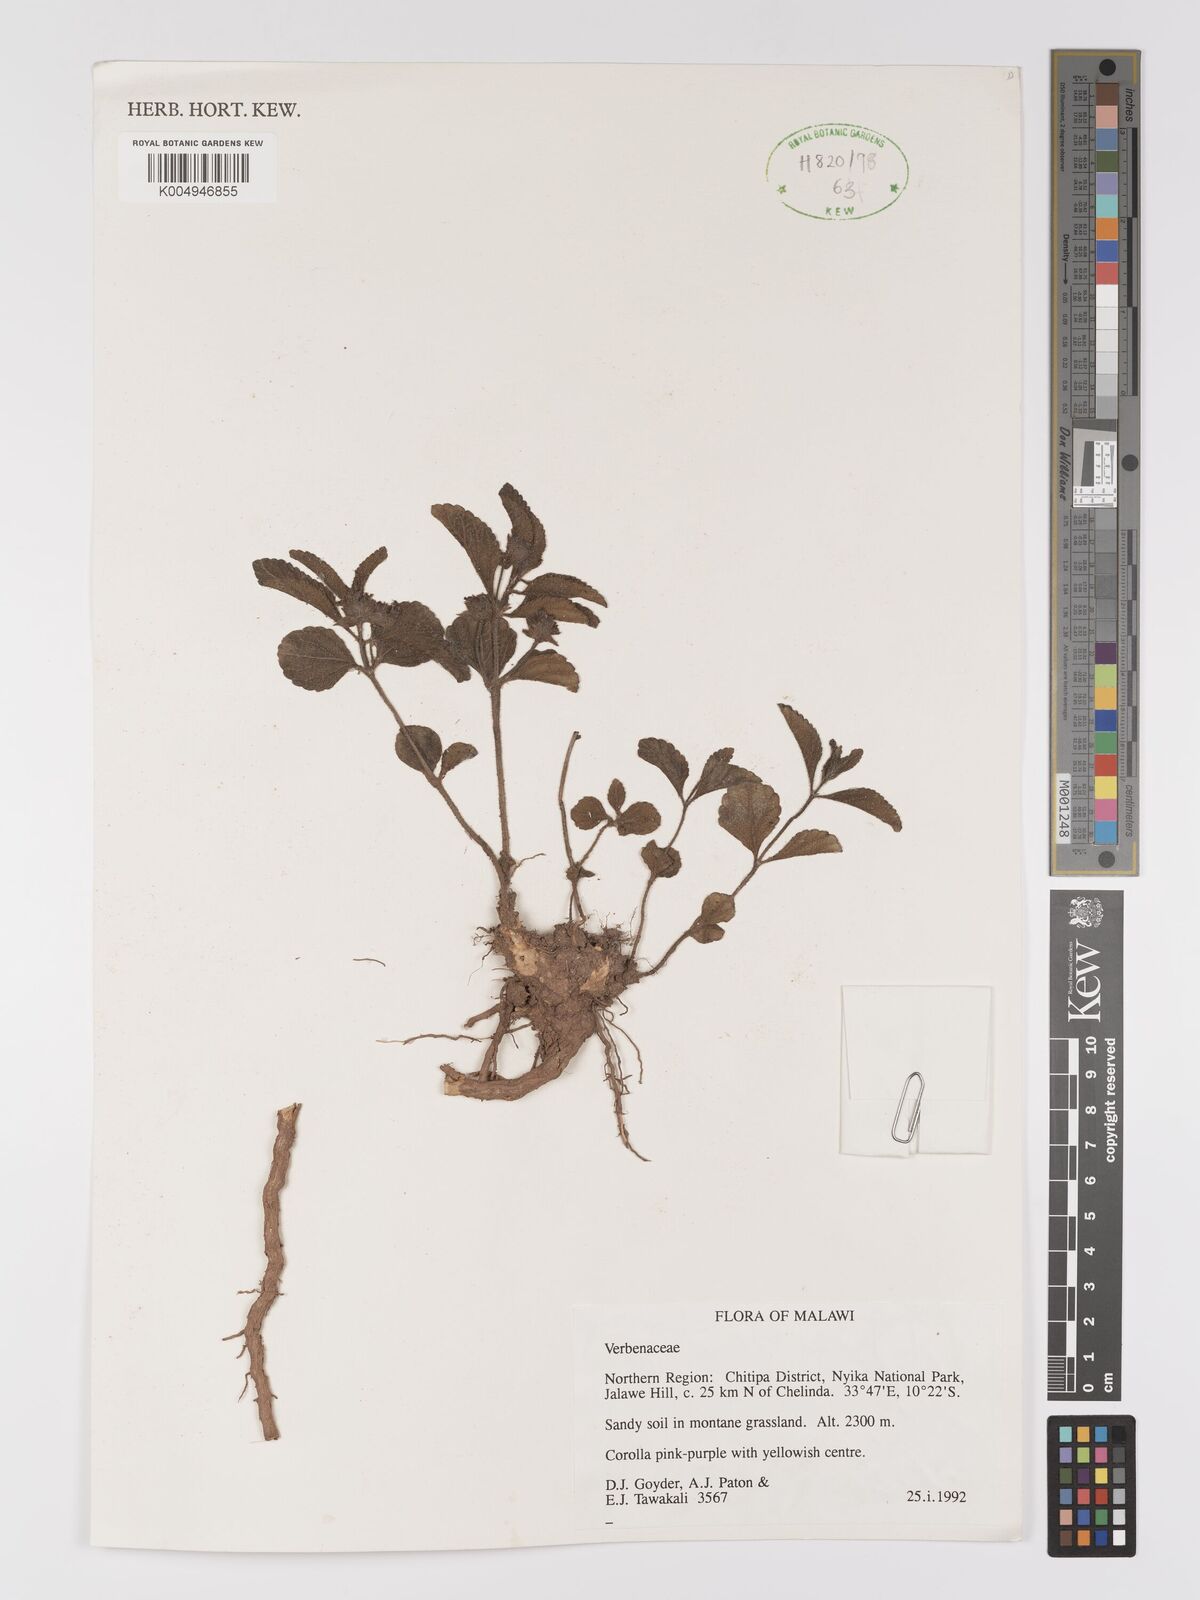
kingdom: Plantae
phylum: Tracheophyta
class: Magnoliopsida
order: Lamiales
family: Verbenaceae
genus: Lippia
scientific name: Lippia praecox
